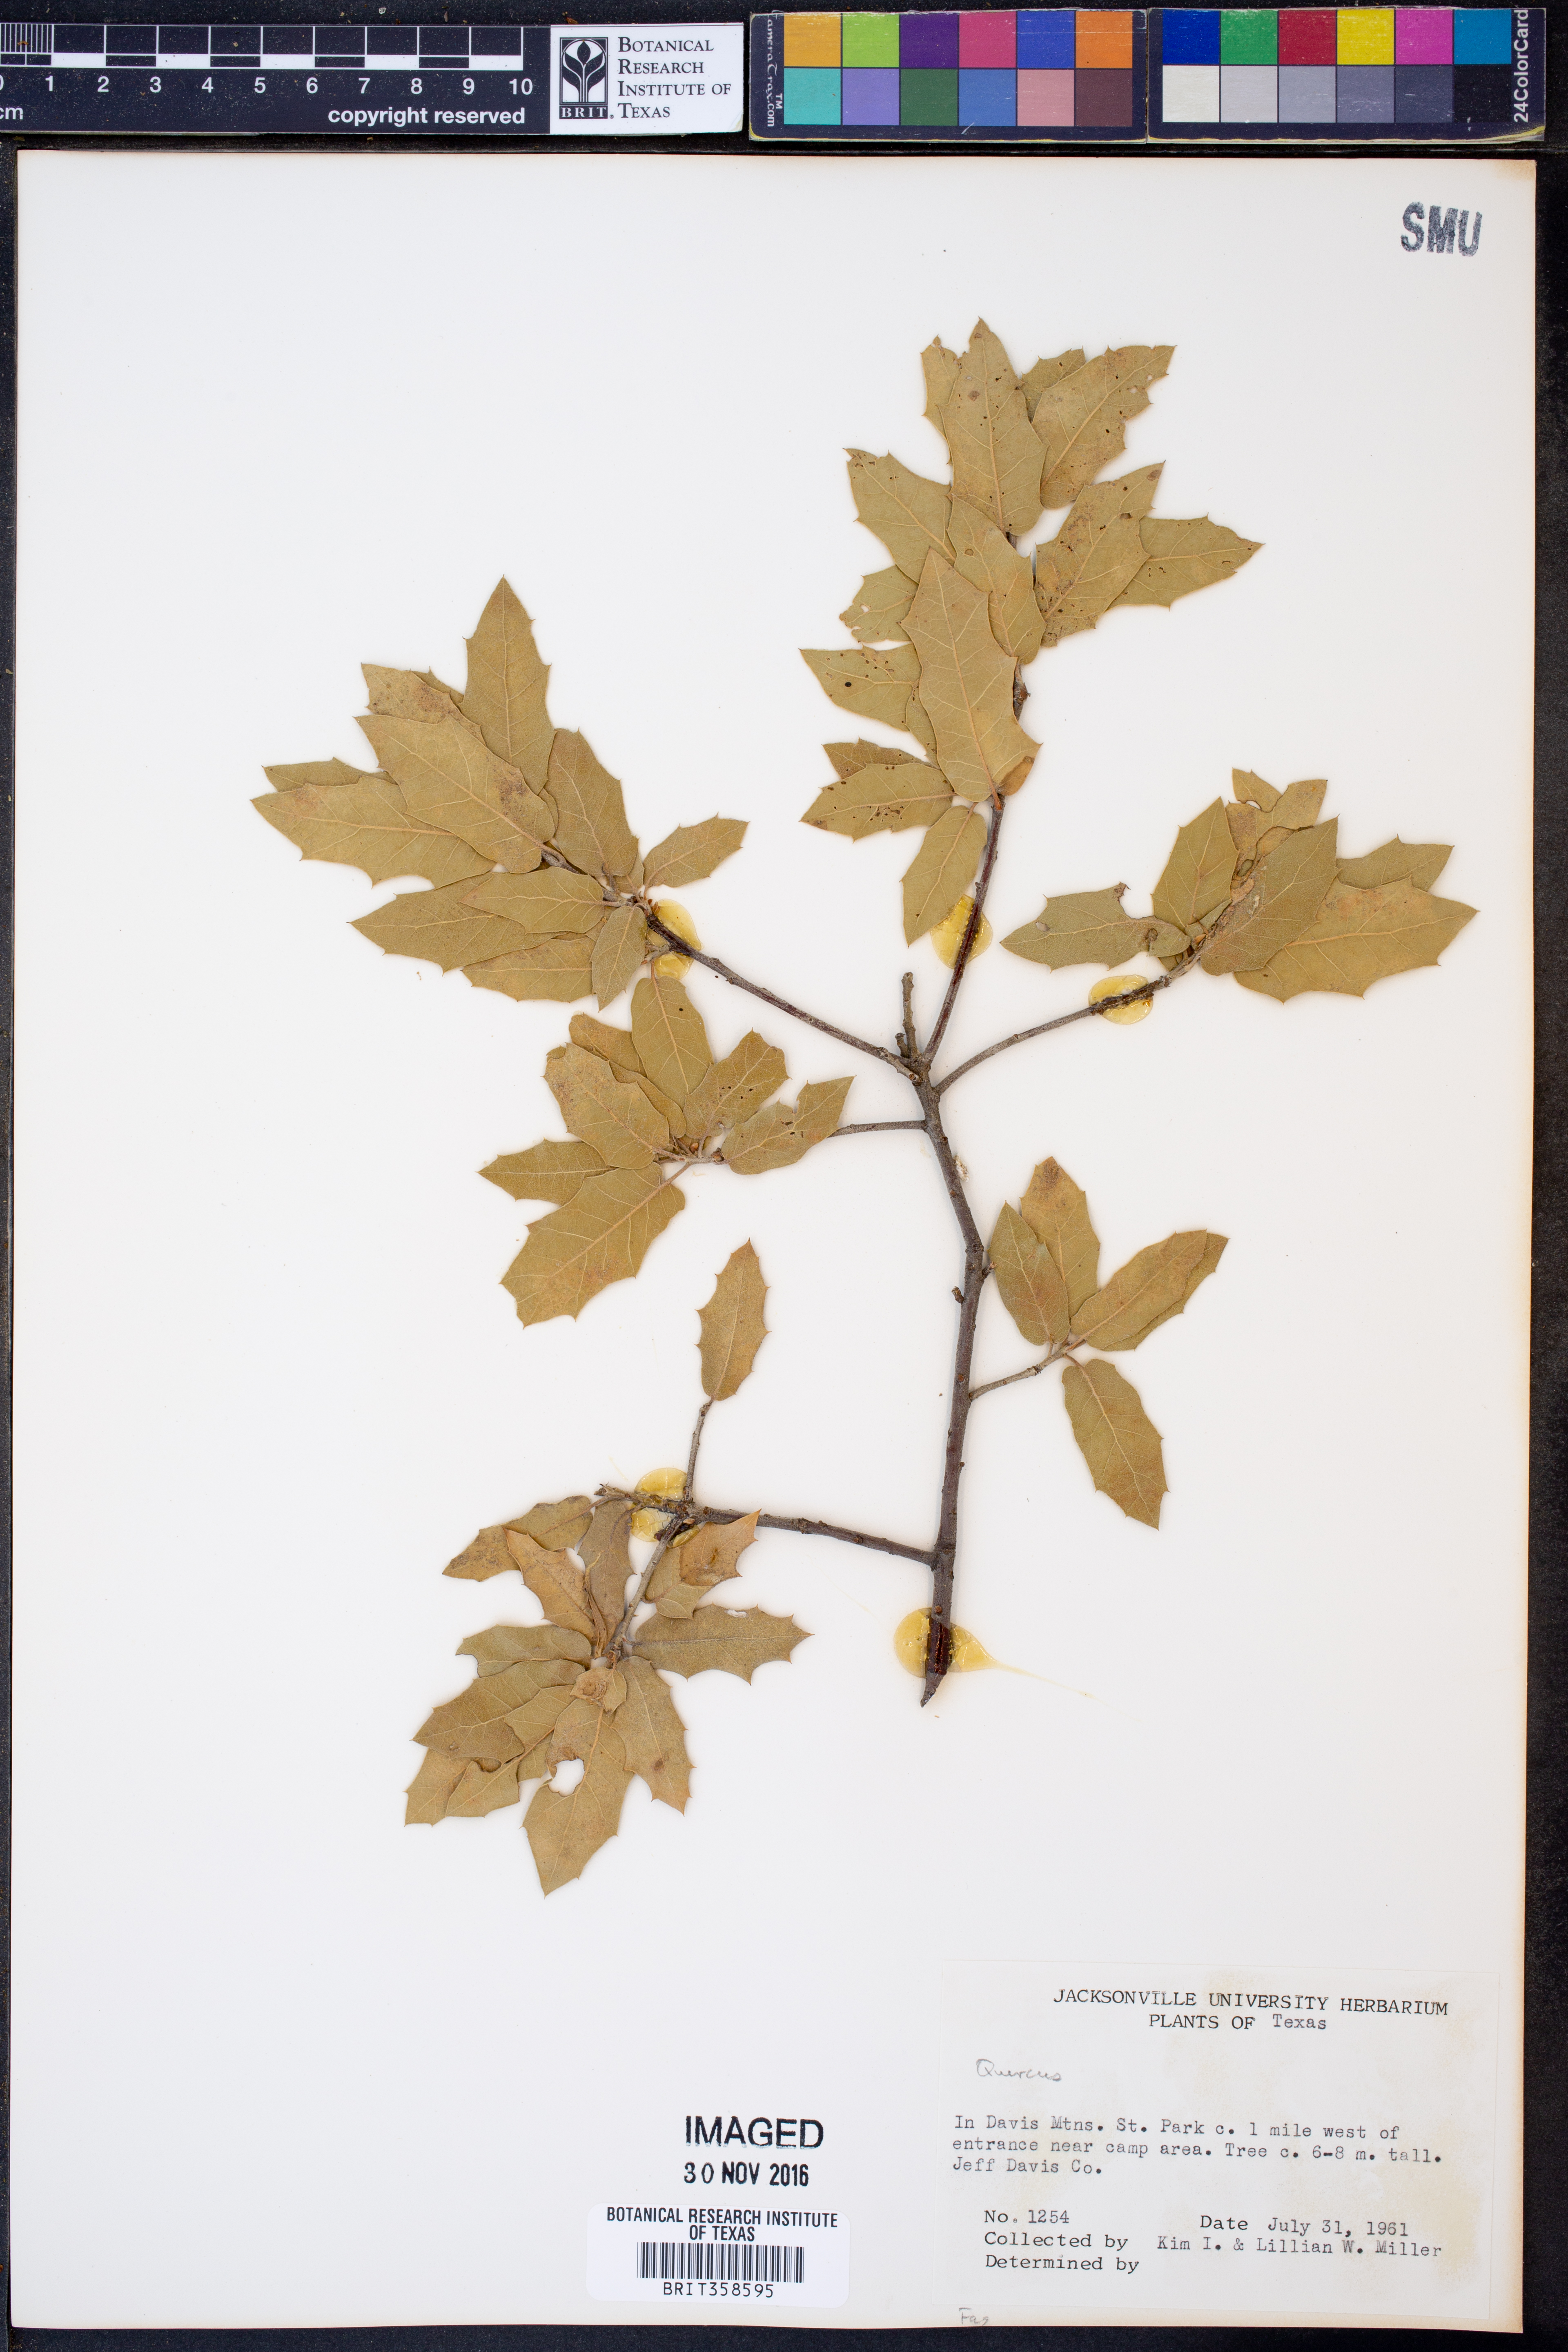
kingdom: Plantae
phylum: Tracheophyta
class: Magnoliopsida
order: Fagales
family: Fagaceae
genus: Quercus
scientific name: Quercus
